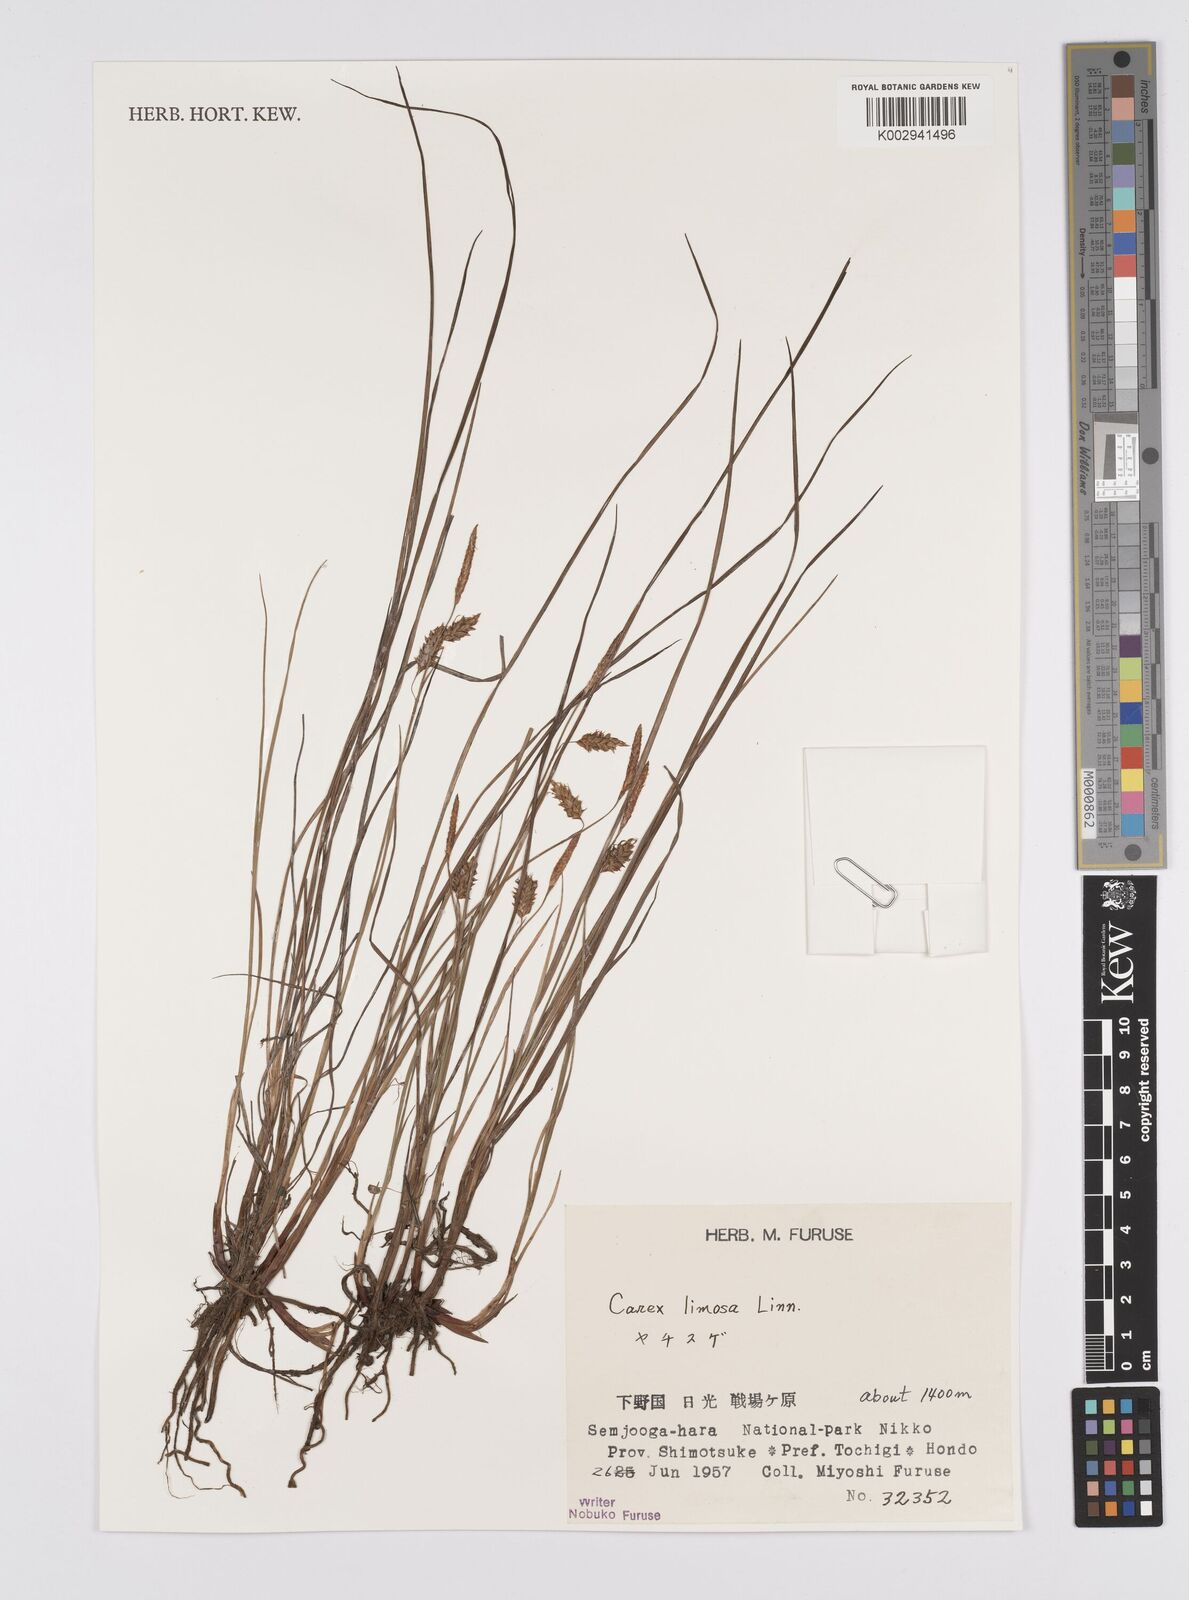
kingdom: Plantae
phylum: Tracheophyta
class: Liliopsida
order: Poales
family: Cyperaceae
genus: Carex
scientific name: Carex limosa
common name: Bog sedge
